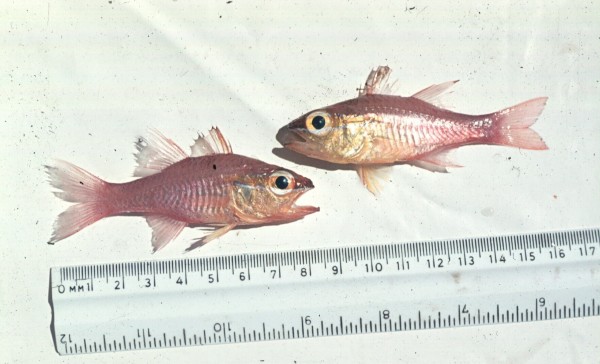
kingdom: Animalia
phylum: Chordata
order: Perciformes
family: Apogonidae
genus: Ostorhinchus
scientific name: Ostorhinchus apogonoides
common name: Goldbelly cardinalfish
